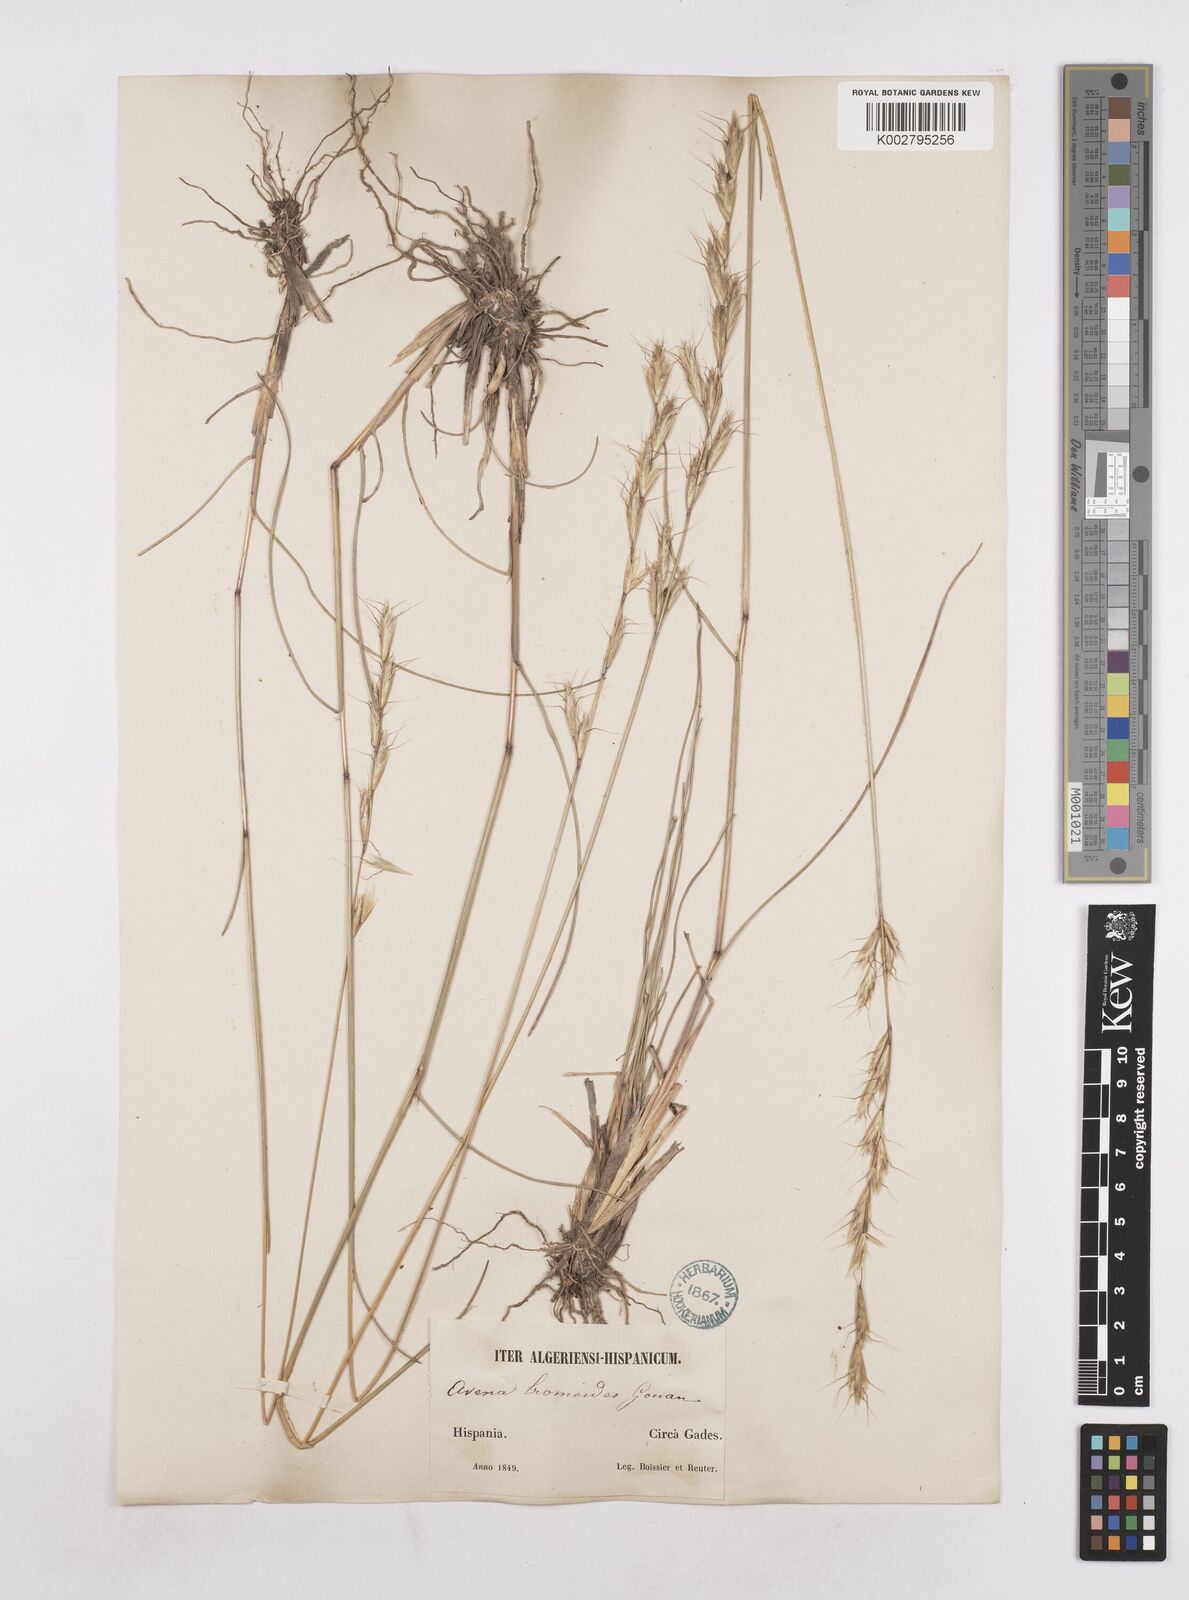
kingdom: Plantae
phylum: Tracheophyta
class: Liliopsida
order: Poales
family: Poaceae
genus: Helictochloa
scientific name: Helictochloa bromoides
